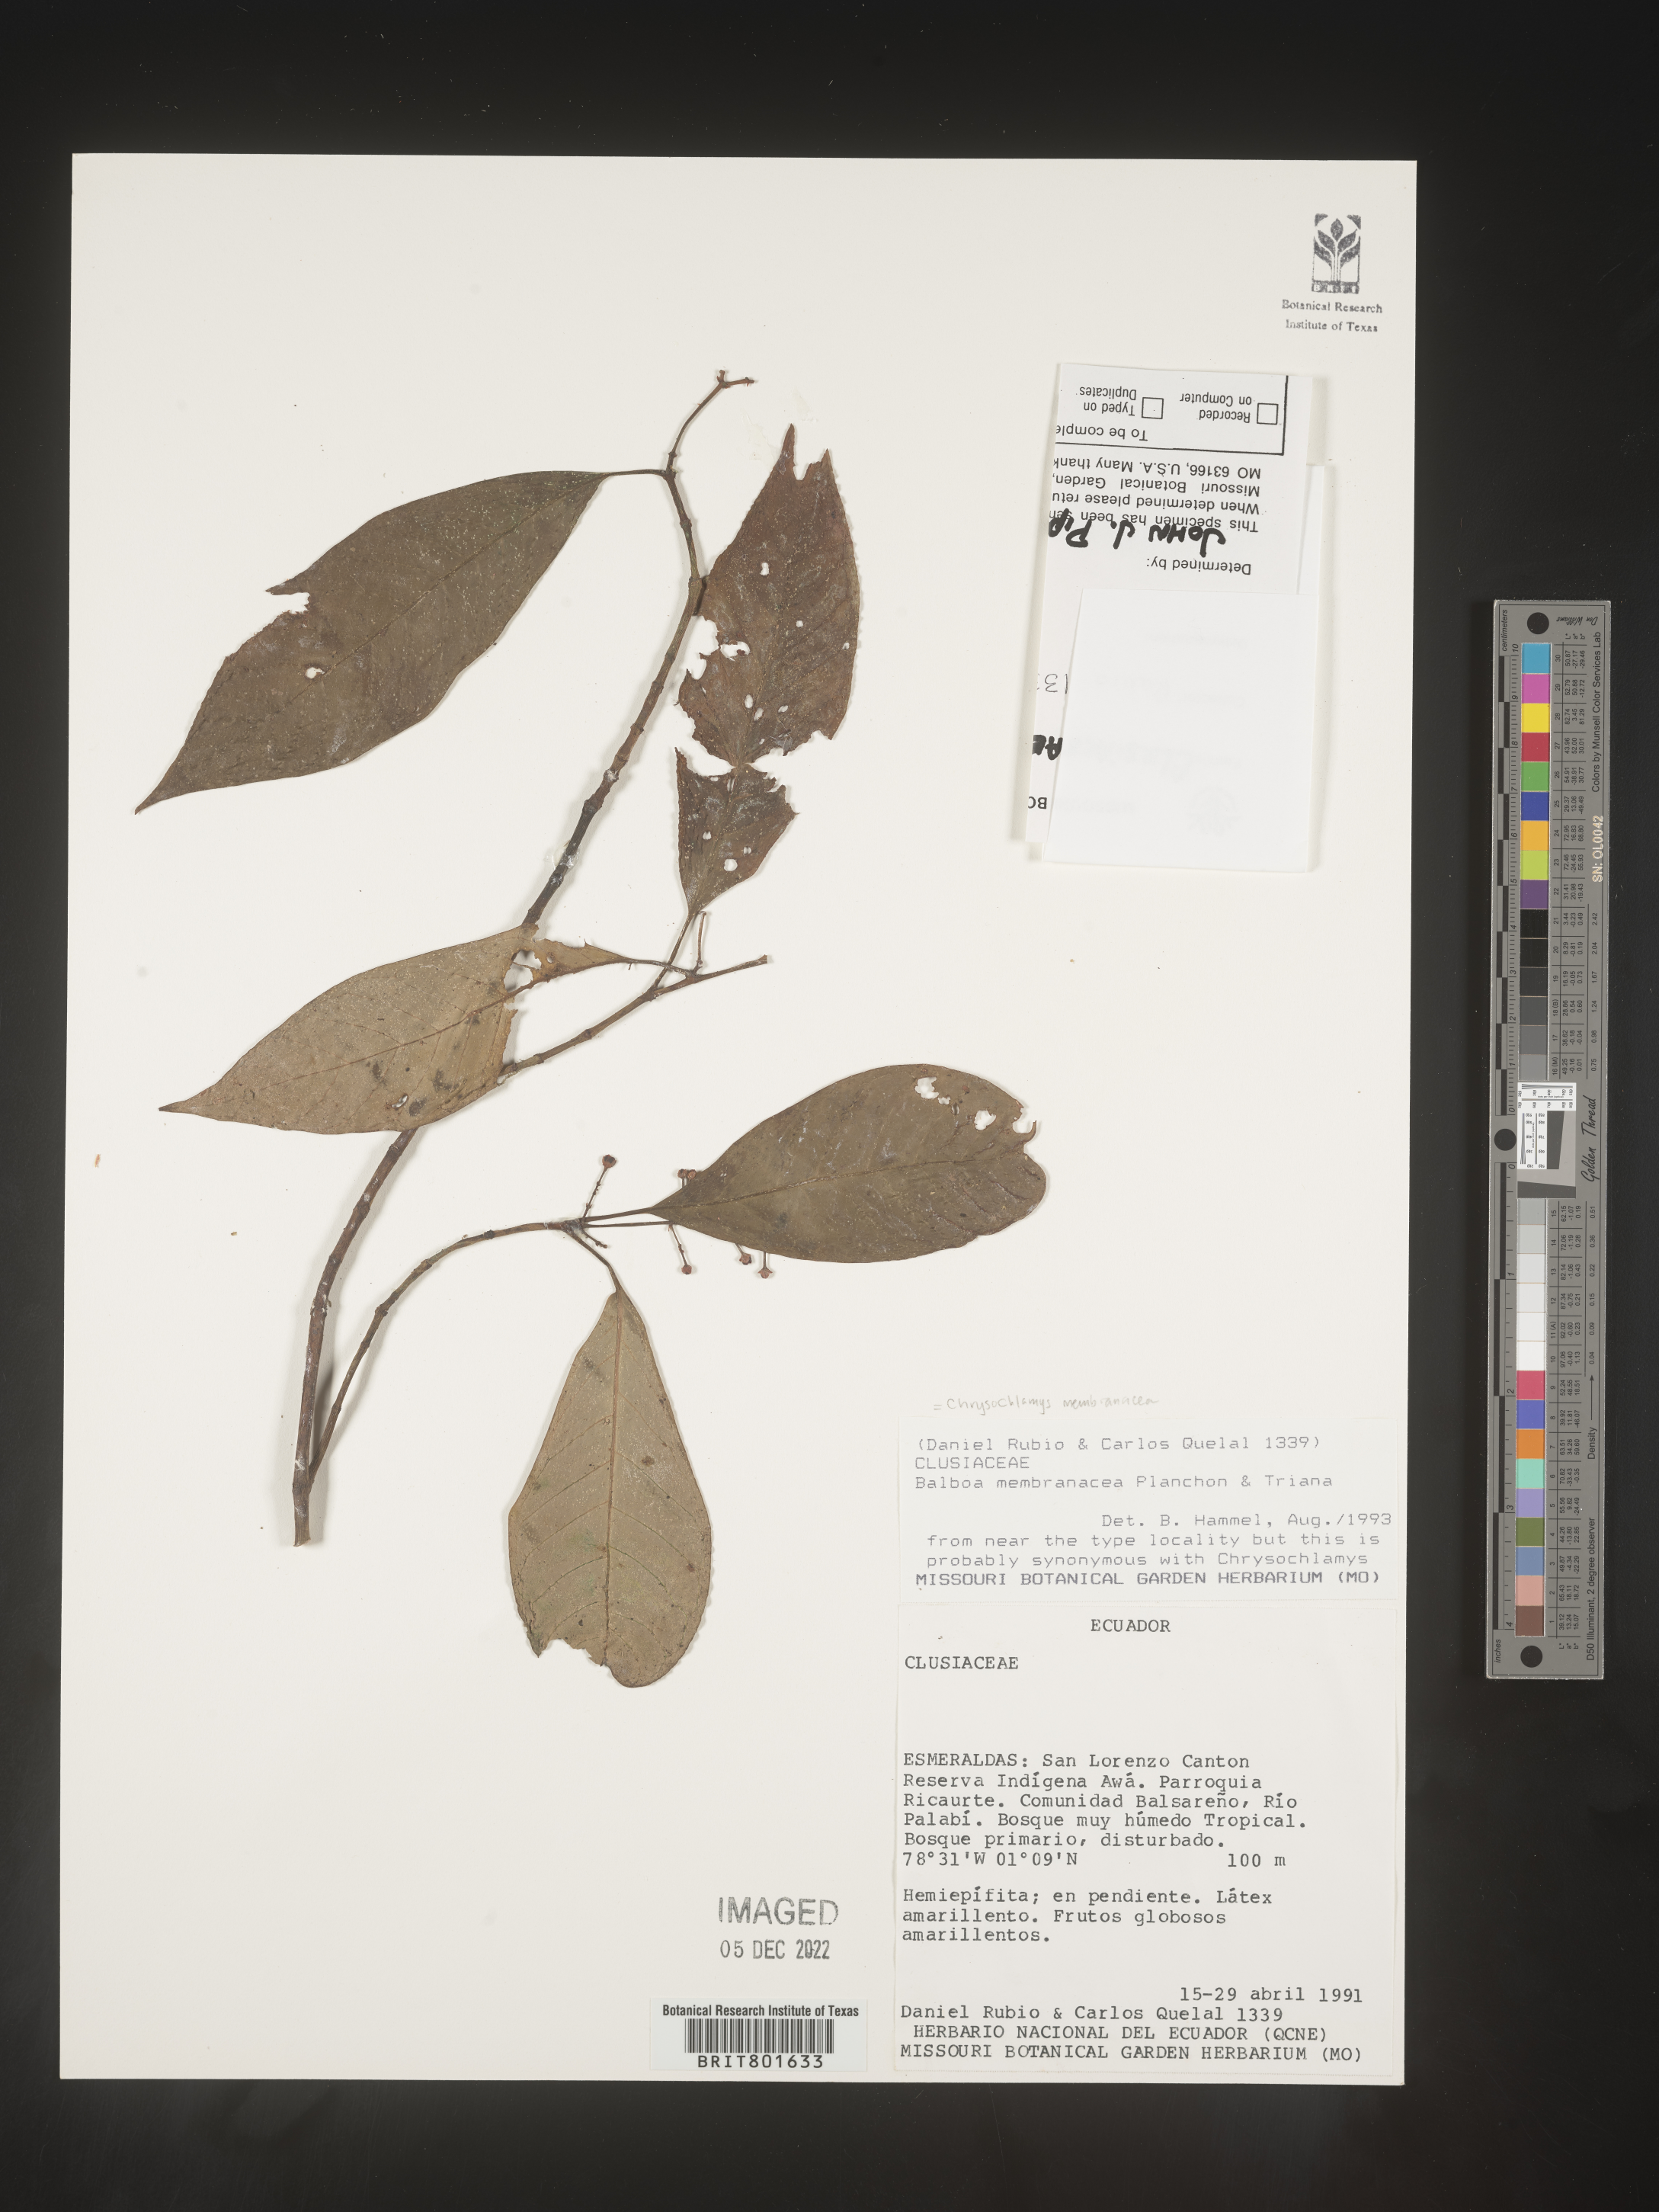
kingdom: Plantae
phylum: Tracheophyta
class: Magnoliopsida
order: Malpighiales
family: Clusiaceae
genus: Chrysochlamys
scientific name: Chrysochlamys membranacea
